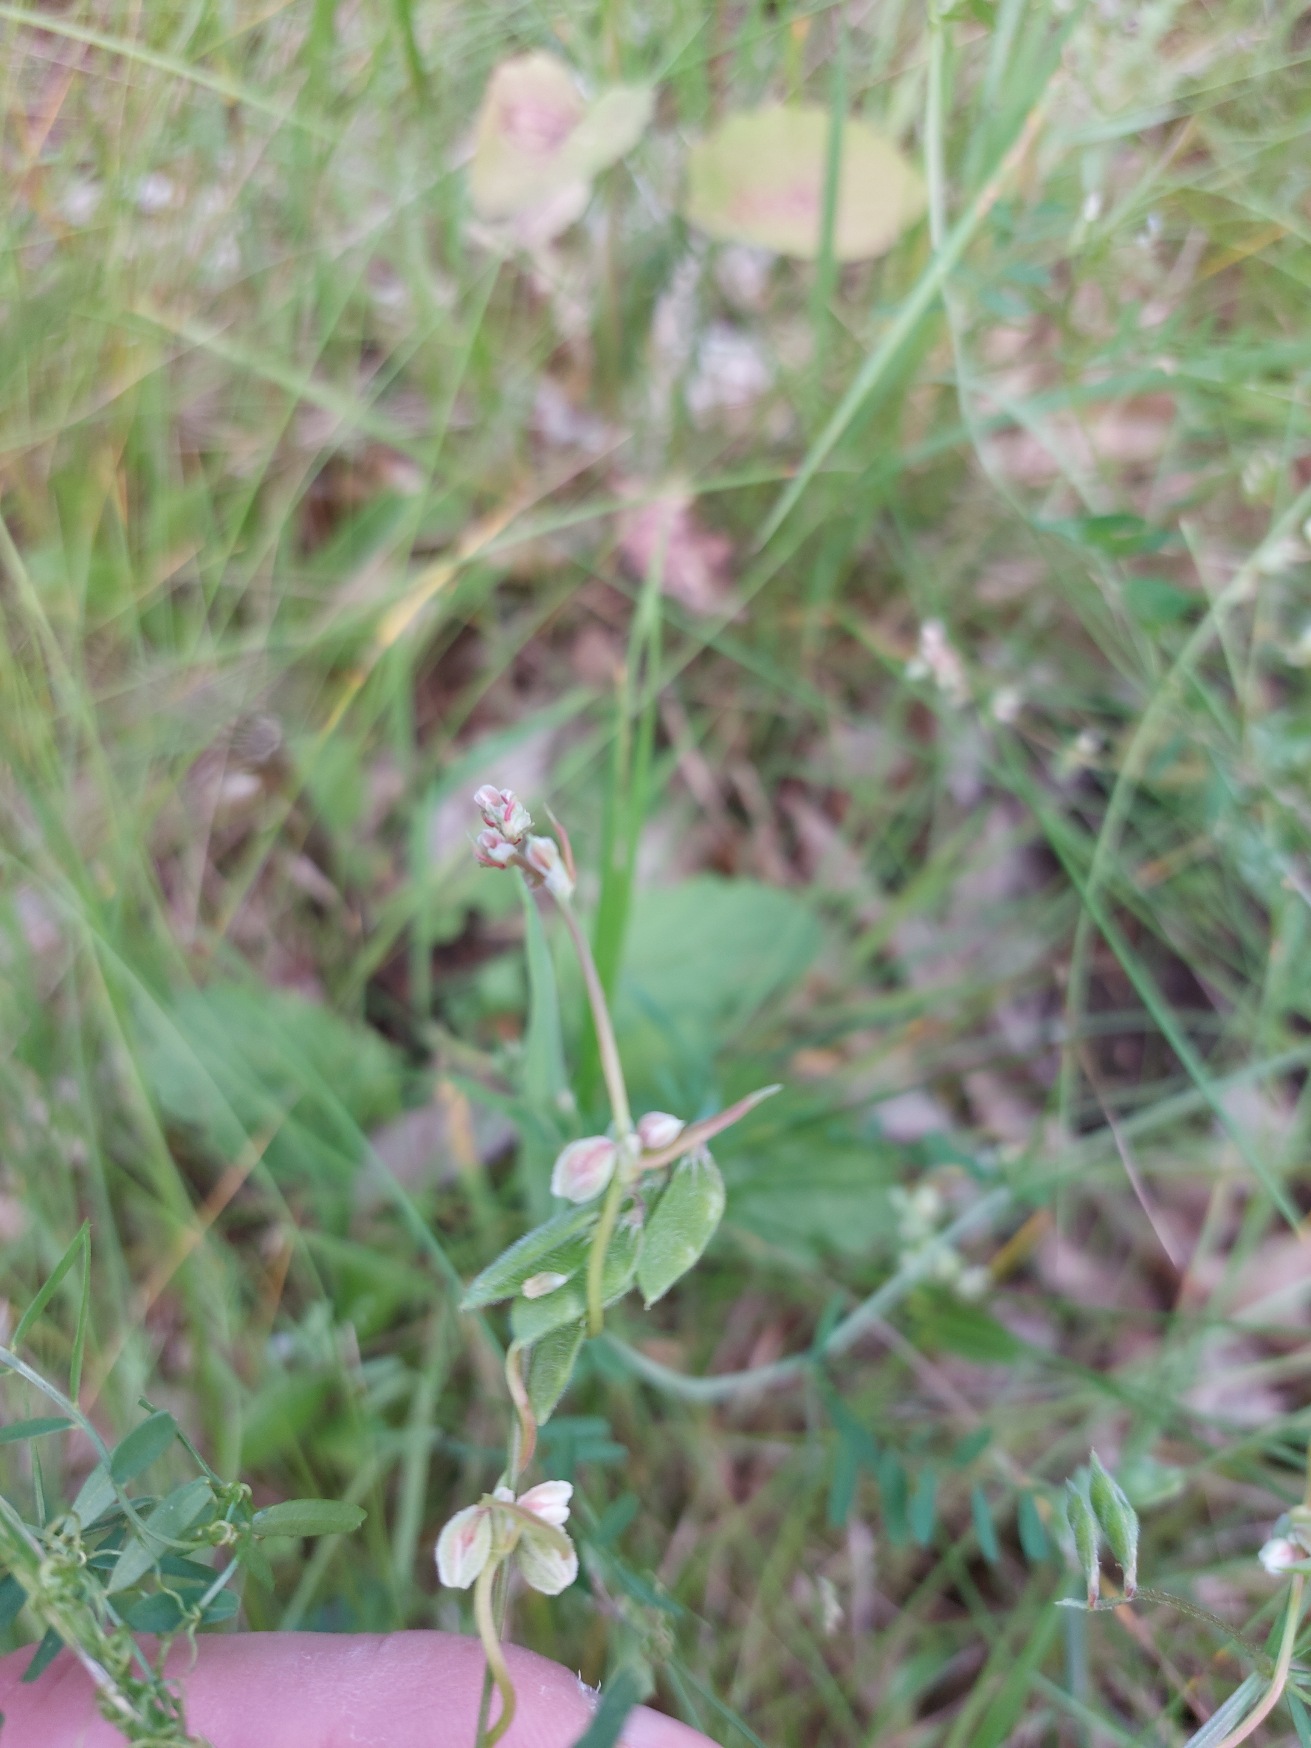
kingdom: Plantae
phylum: Tracheophyta
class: Magnoliopsida
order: Caryophyllales
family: Polygonaceae
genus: Fallopia
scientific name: Fallopia convolvulus
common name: Snerle-pileurt
